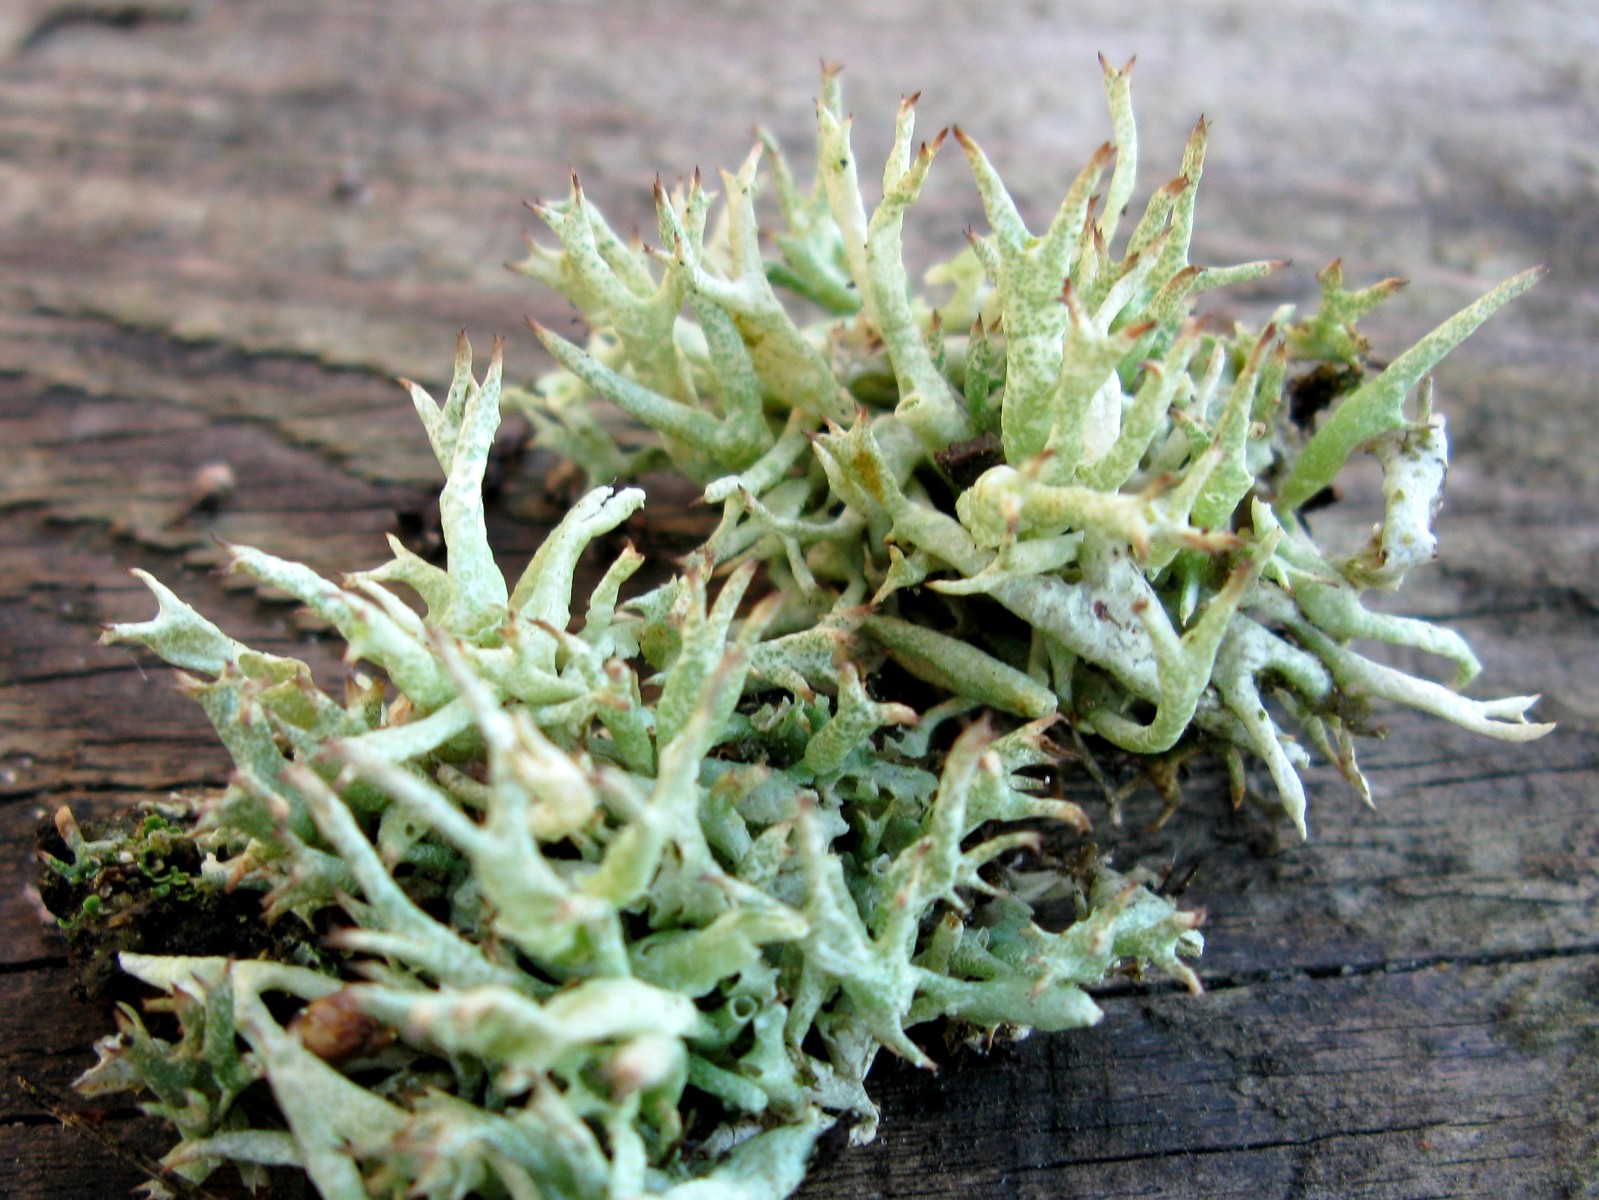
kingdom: Fungi
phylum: Ascomycota
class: Lecanoromycetes
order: Lecanorales
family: Cladoniaceae
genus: Cladonia
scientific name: Cladonia uncialis
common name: pigget bægerlav
